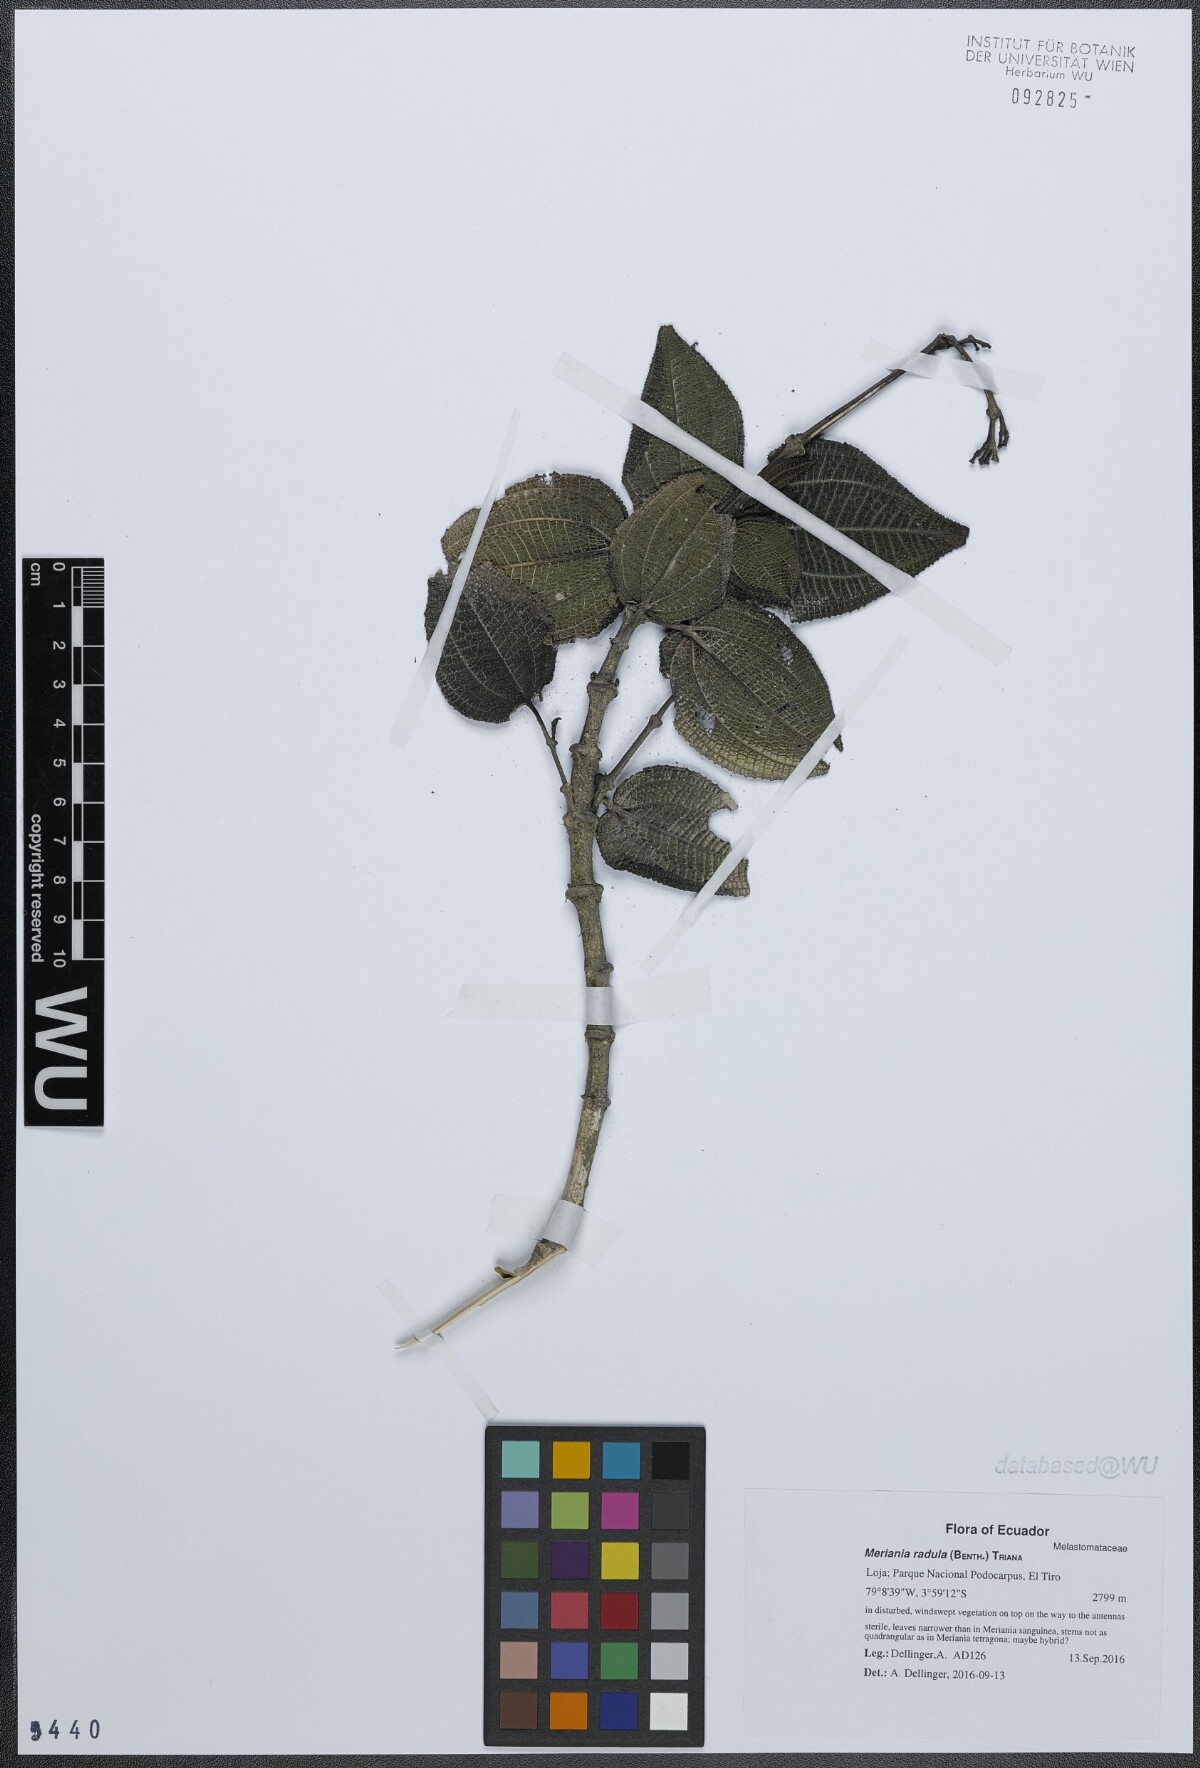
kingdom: Plantae
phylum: Tracheophyta
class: Magnoliopsida
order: Myrtales
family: Melastomataceae
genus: Meriania
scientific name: Meriania radula
